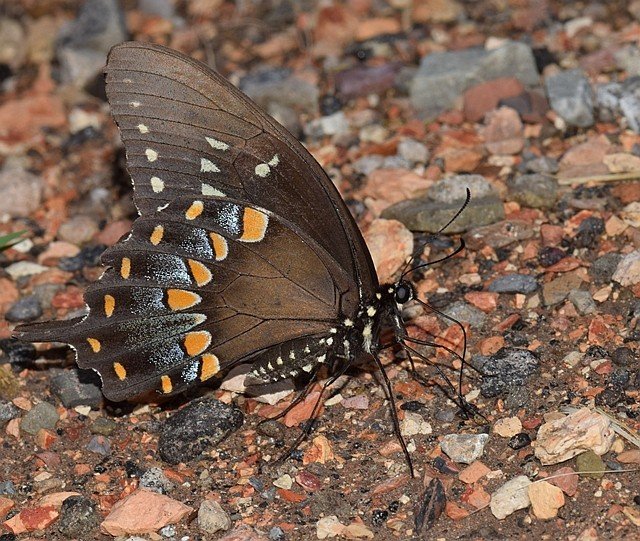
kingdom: Animalia
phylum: Arthropoda
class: Insecta
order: Lepidoptera
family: Papilionidae
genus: Pterourus
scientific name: Pterourus troilus
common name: Spicebush Swallowtail
